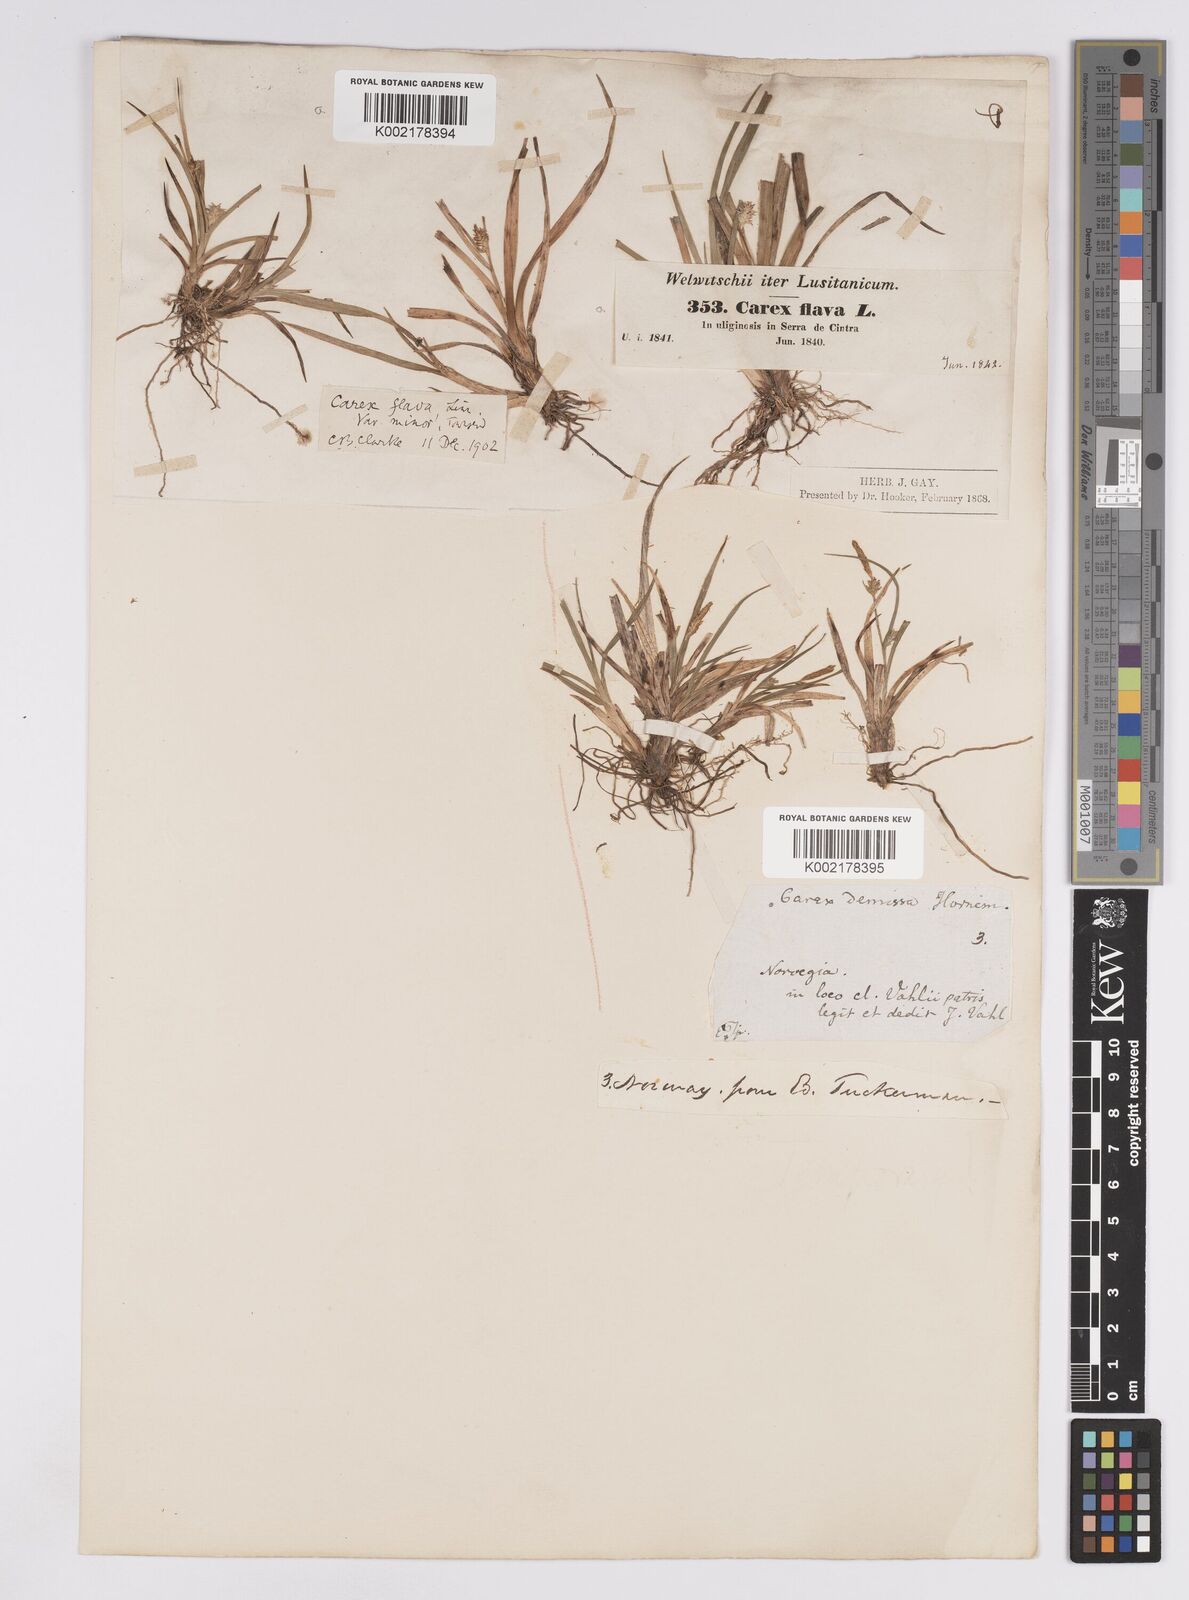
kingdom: Plantae
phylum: Tracheophyta
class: Liliopsida
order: Poales
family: Cyperaceae
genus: Carex
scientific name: Carex demissa
